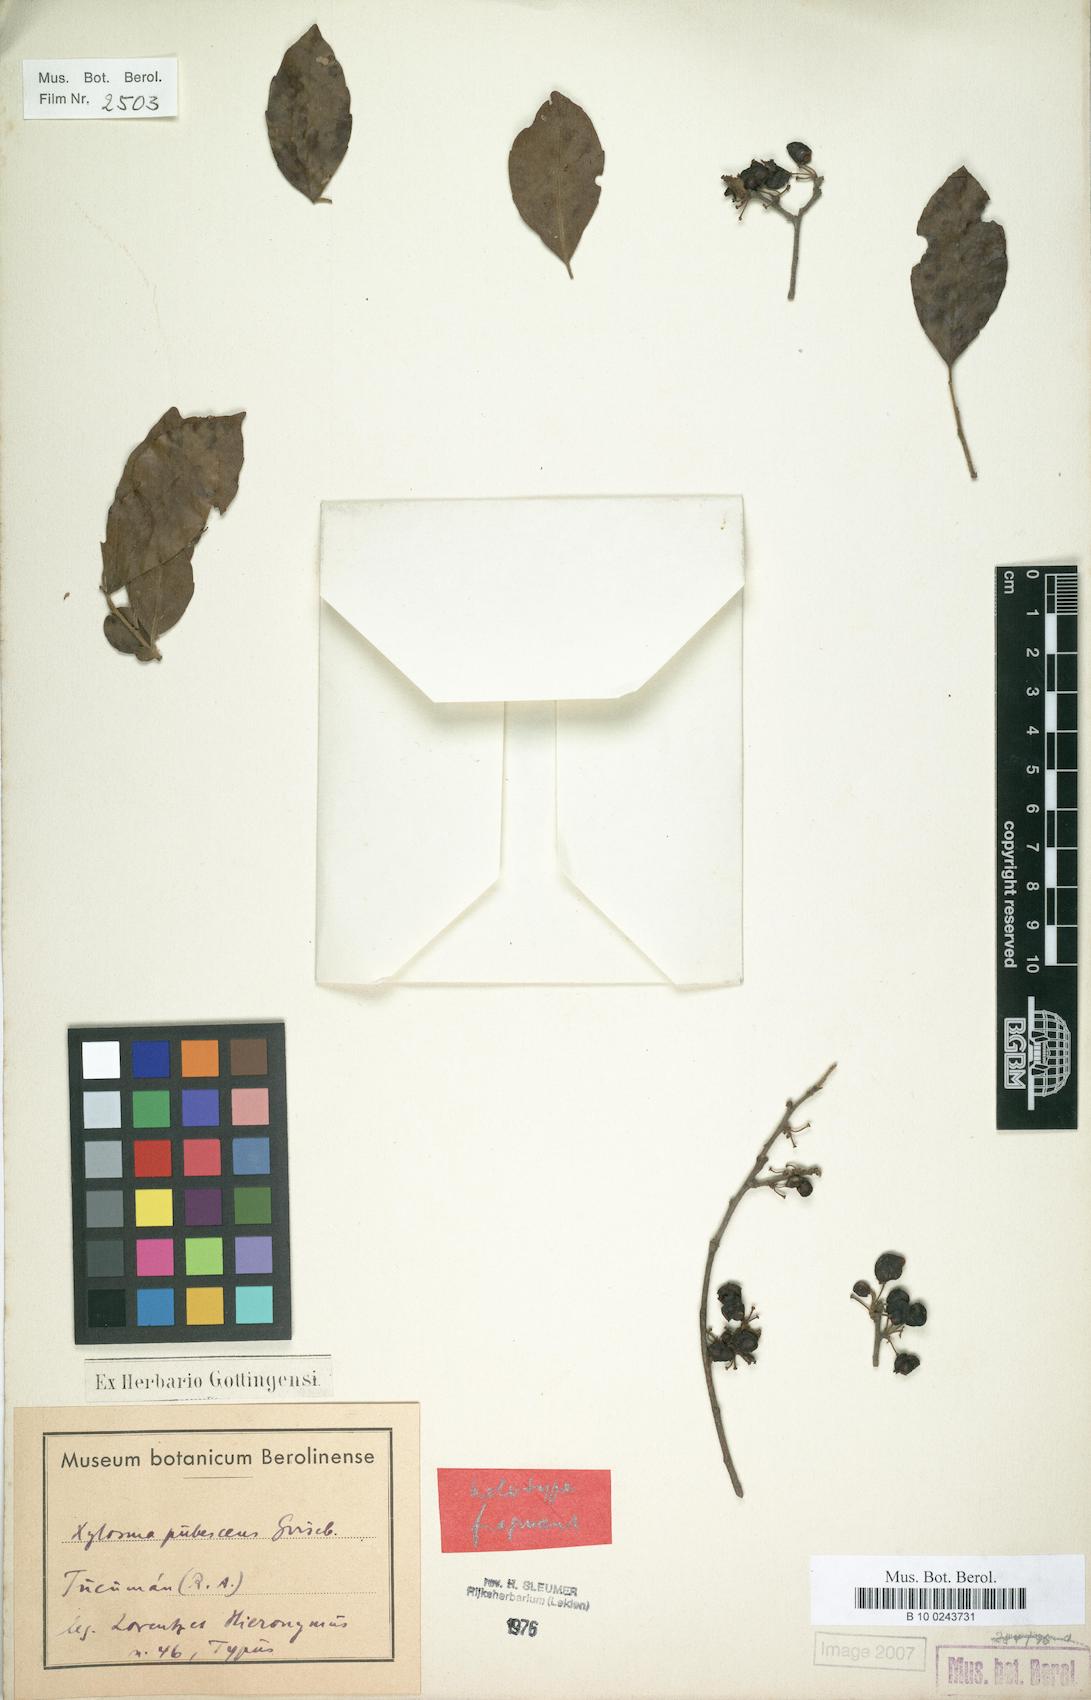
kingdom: Plantae
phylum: Tracheophyta
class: Magnoliopsida
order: Malpighiales
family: Salicaceae
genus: Xylosma
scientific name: Xylosma pubescens
